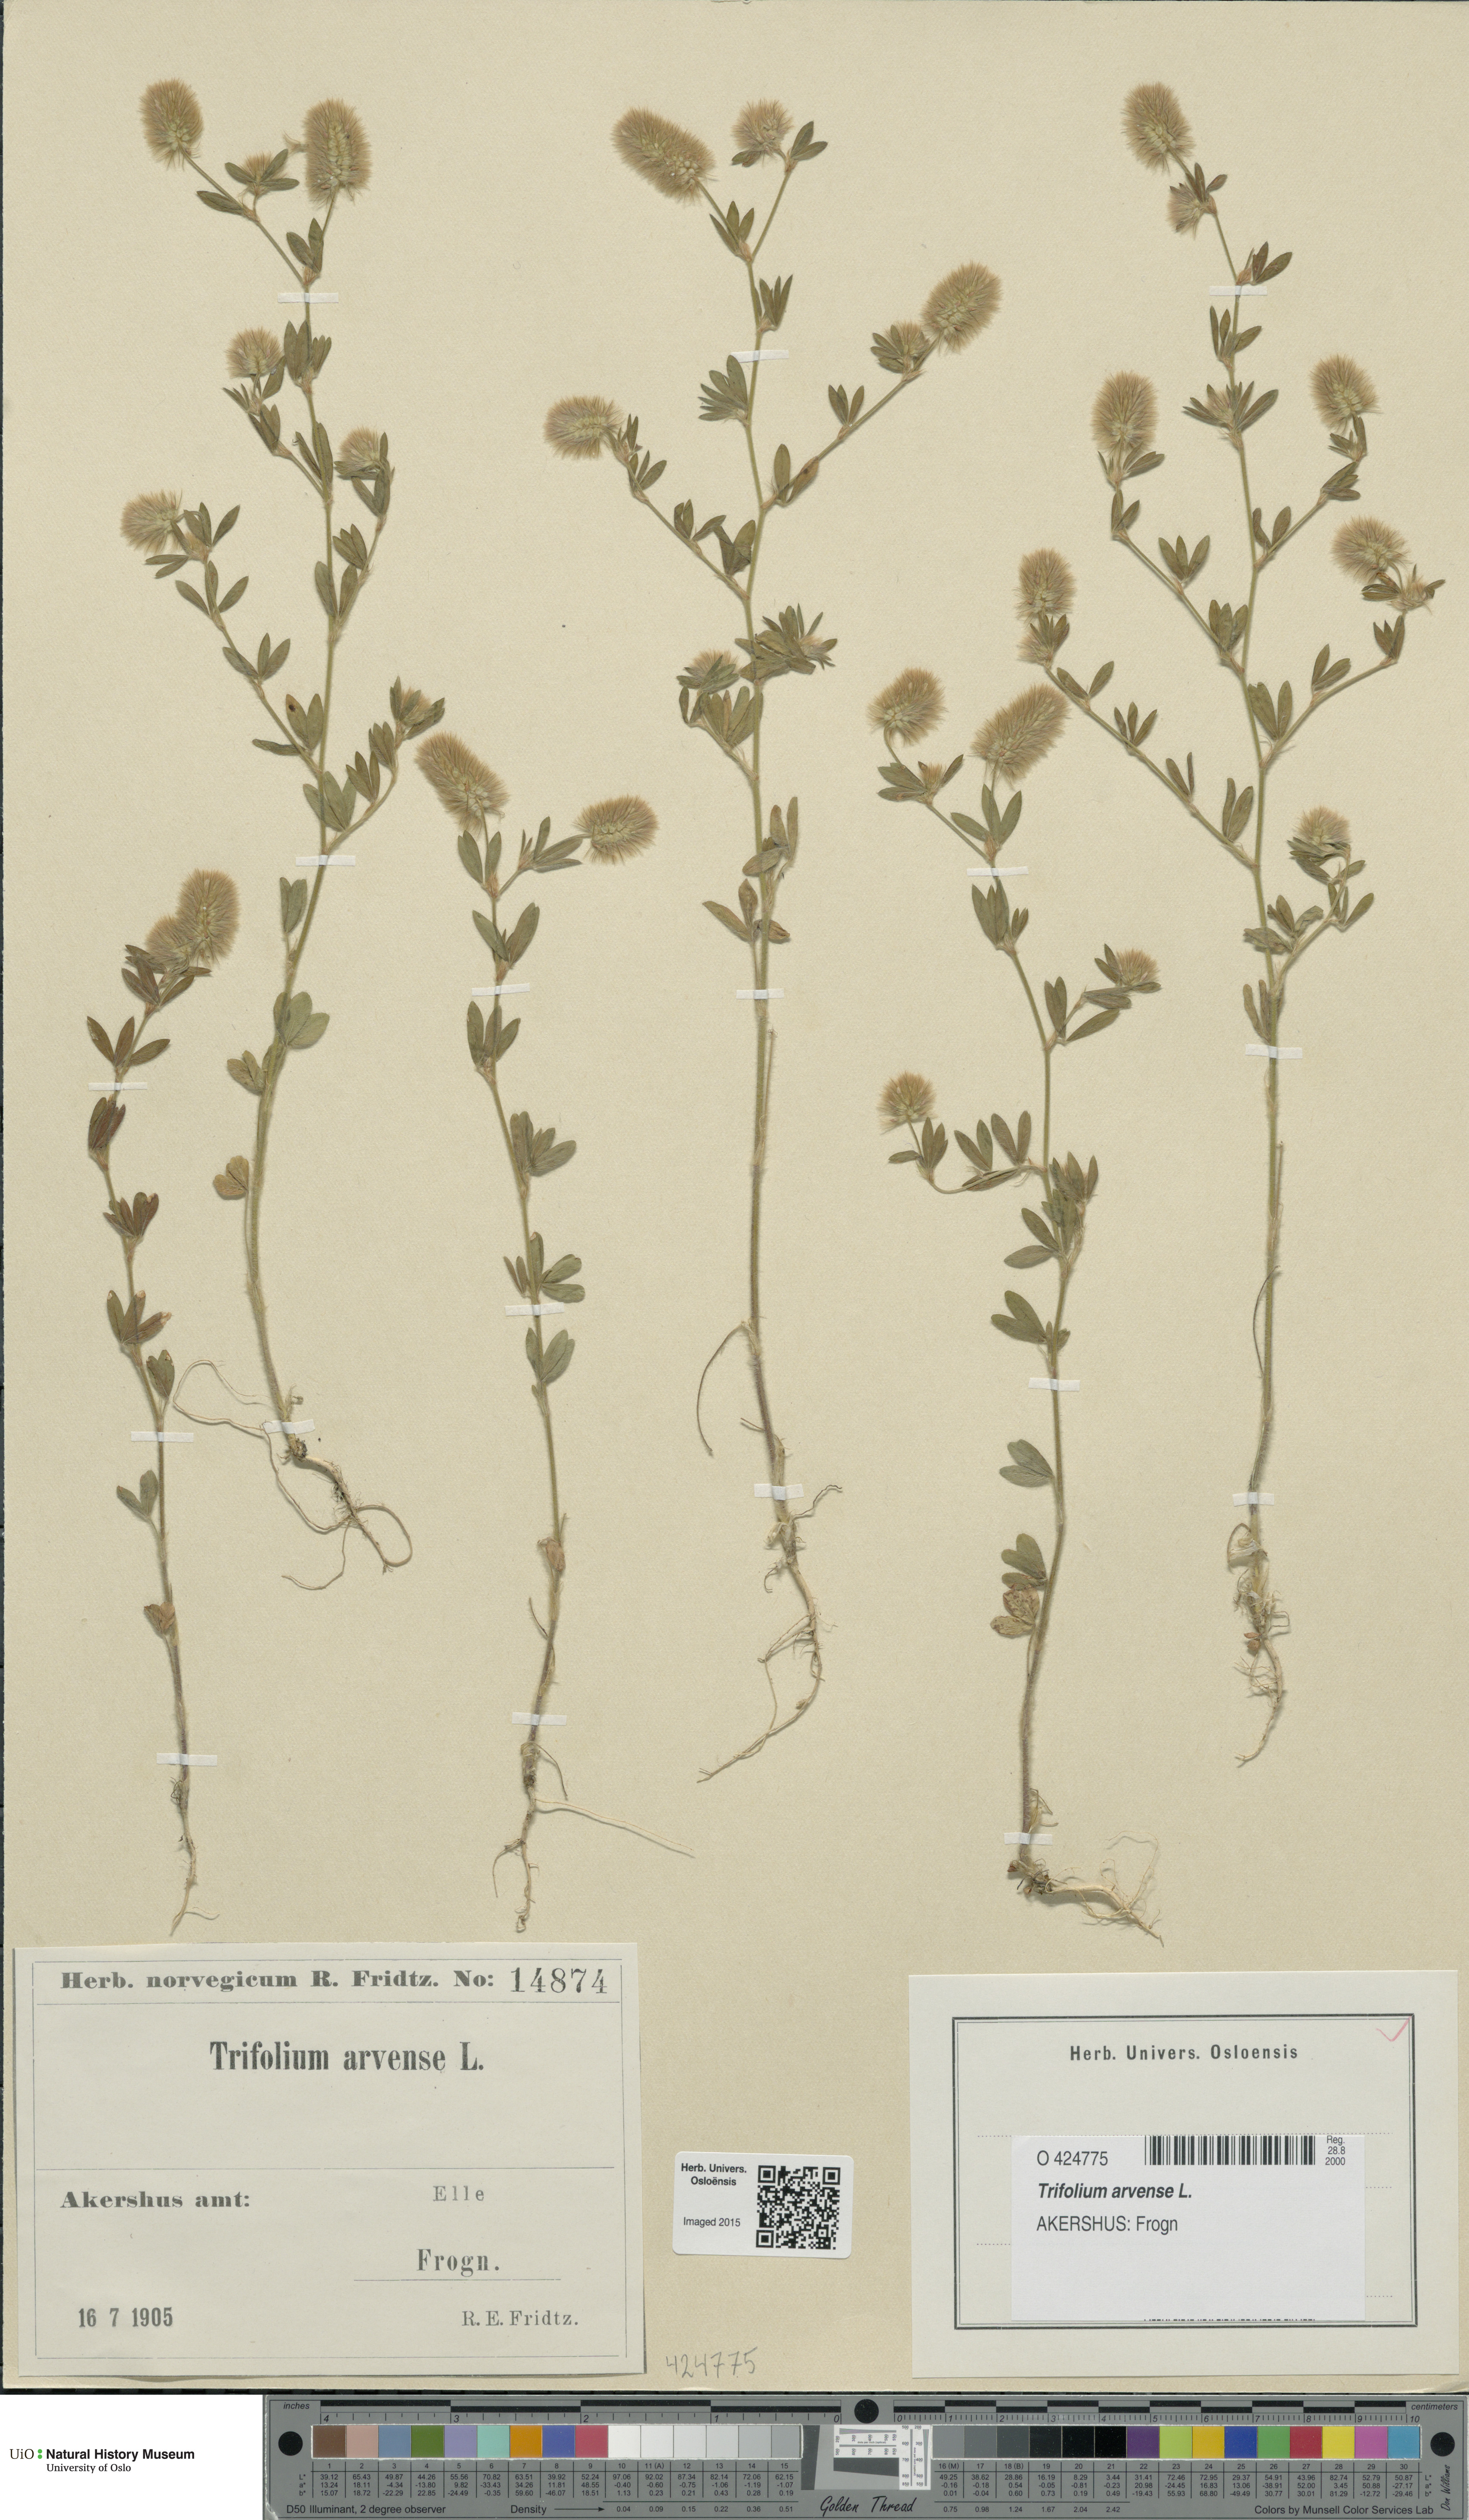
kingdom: Plantae
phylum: Tracheophyta
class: Magnoliopsida
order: Fabales
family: Fabaceae
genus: Trifolium
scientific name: Trifolium arvense
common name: Hare's-foot clover
